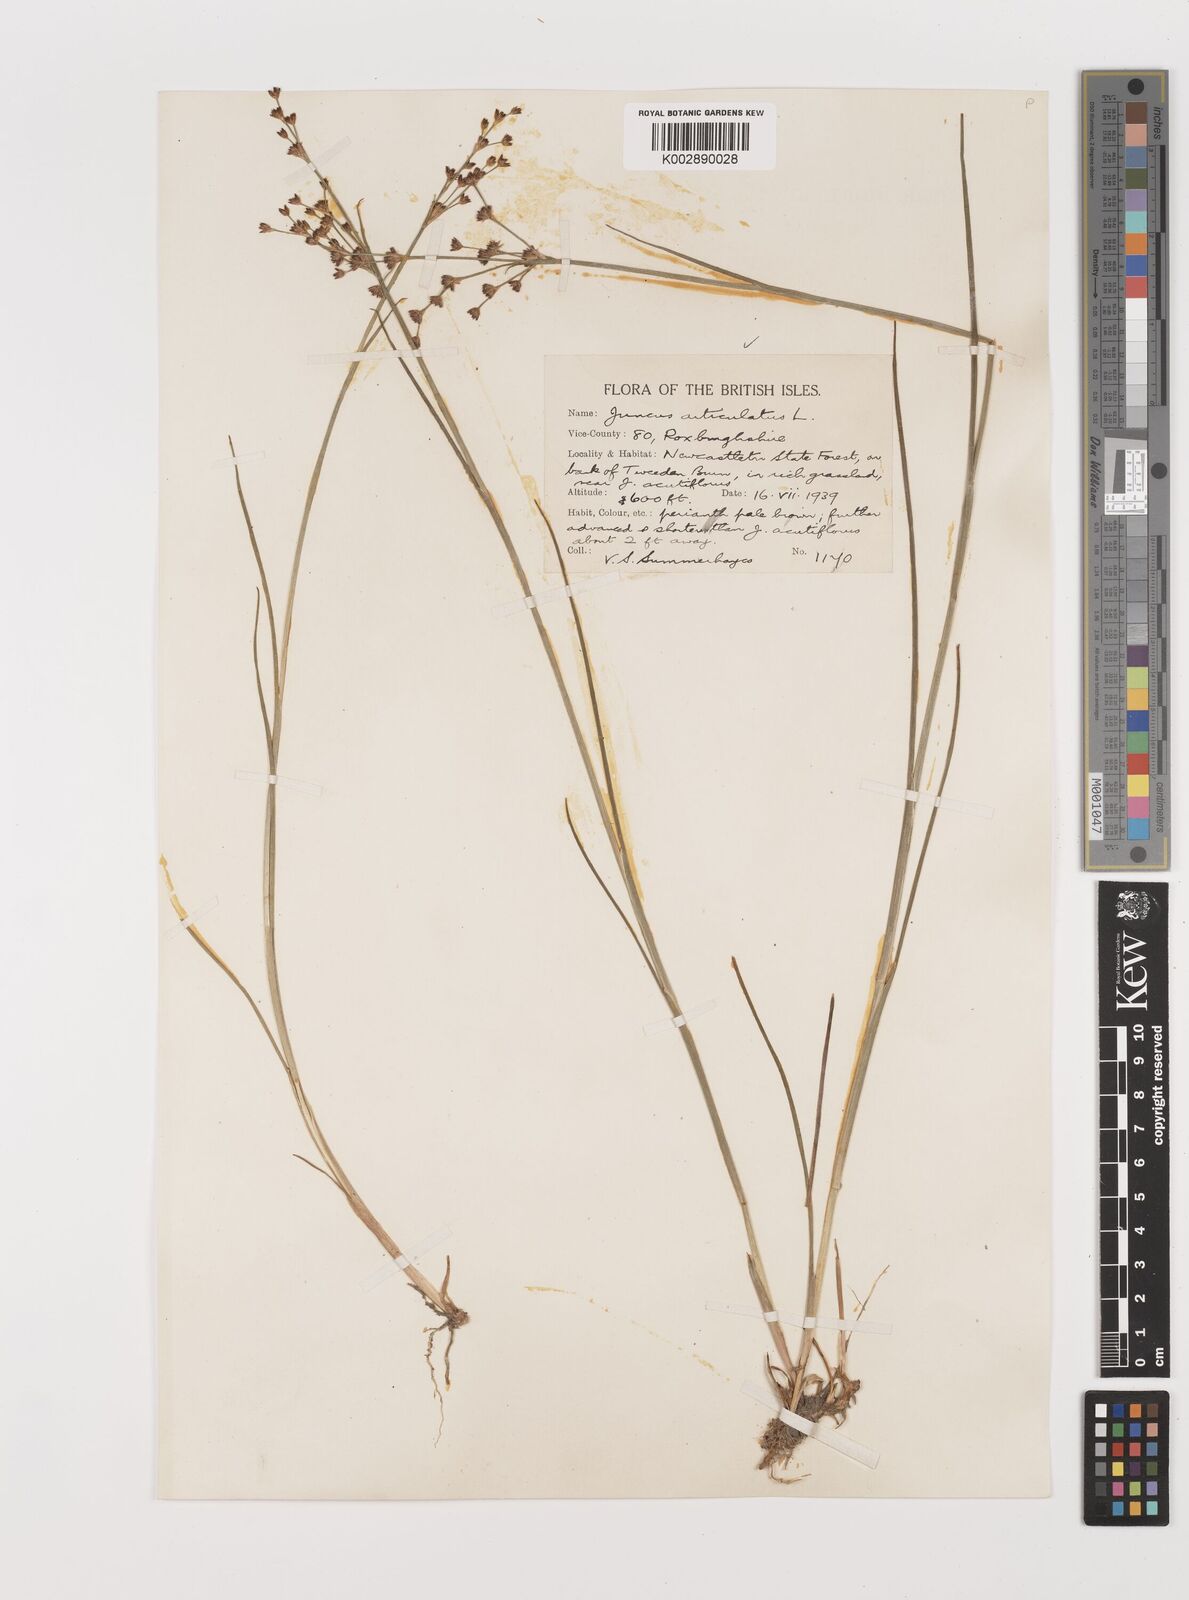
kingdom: Plantae
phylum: Tracheophyta
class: Liliopsida
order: Poales
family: Juncaceae
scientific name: Juncaceae
